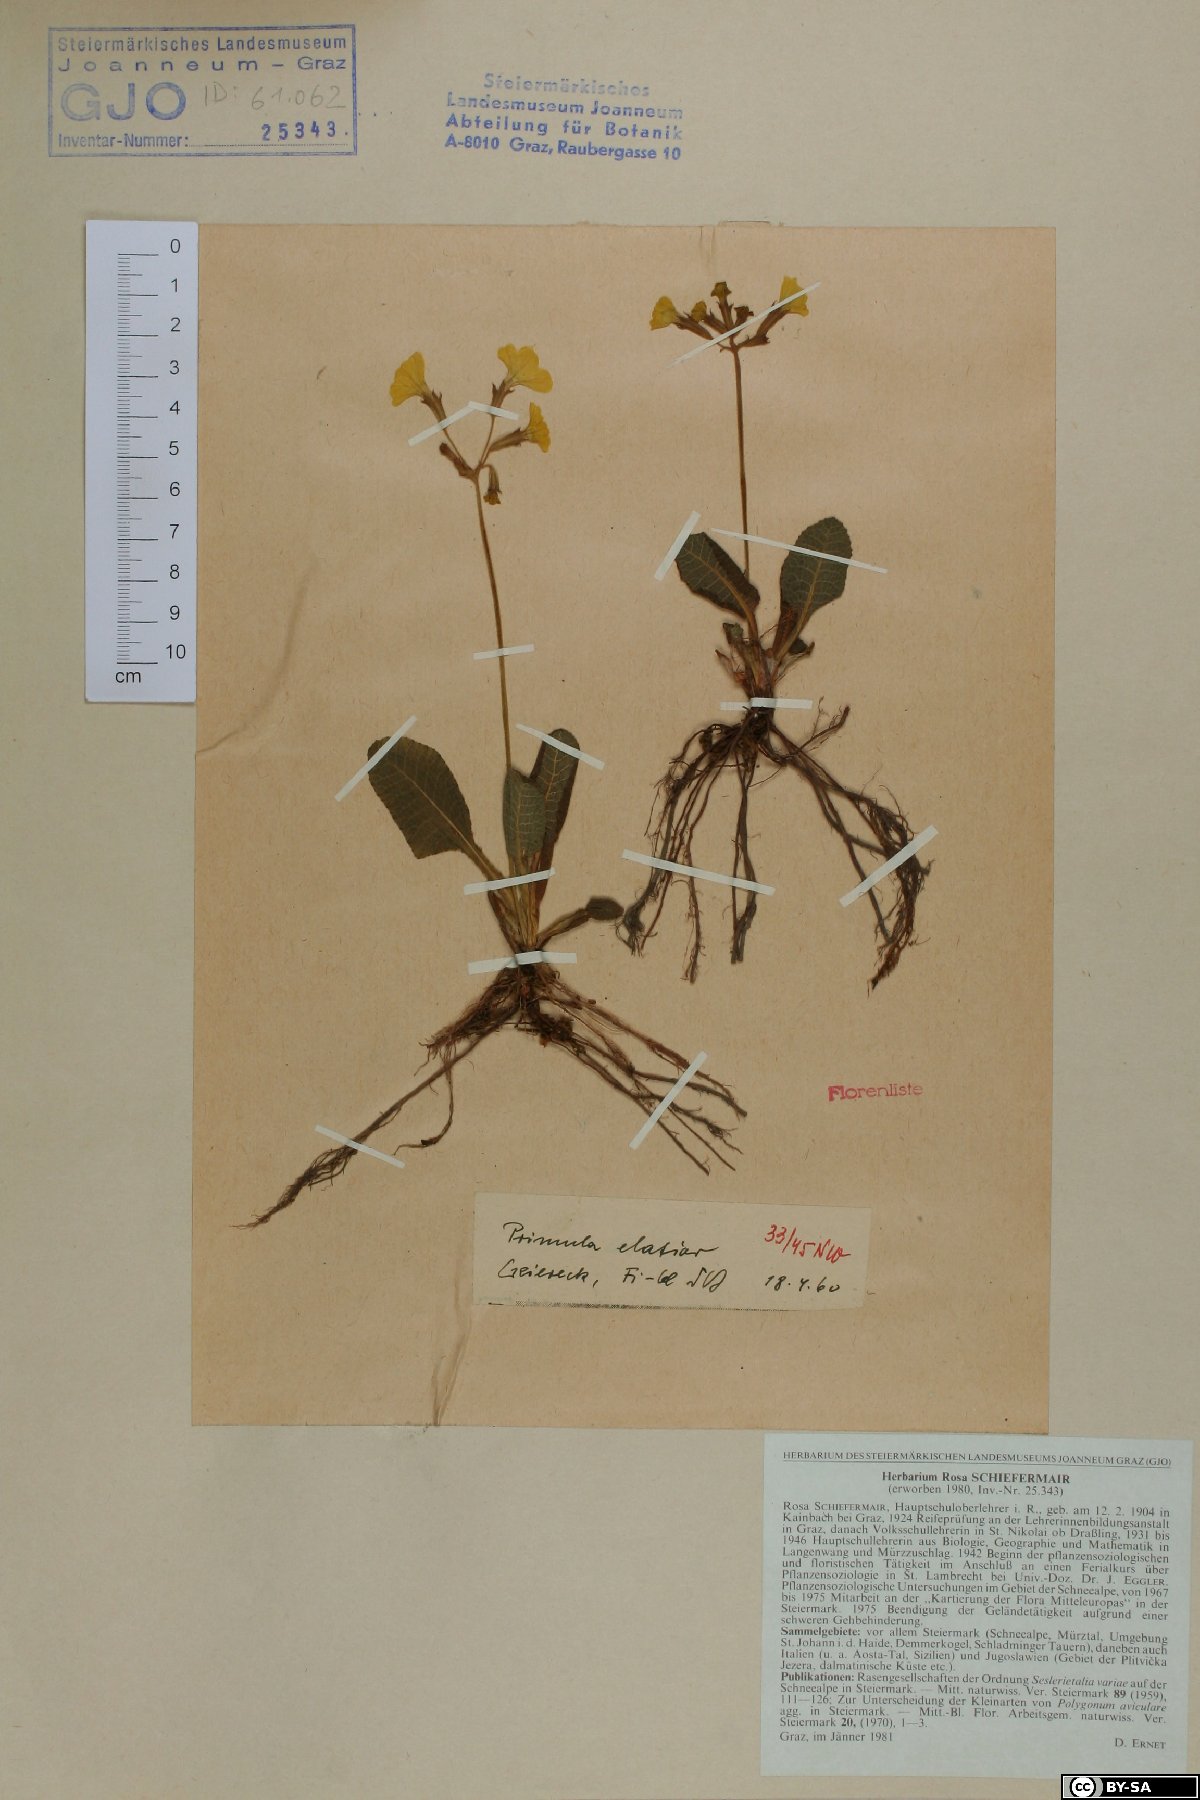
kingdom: Plantae
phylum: Tracheophyta
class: Magnoliopsida
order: Ericales
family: Primulaceae
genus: Primula
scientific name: Primula elatior
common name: Oxlip
